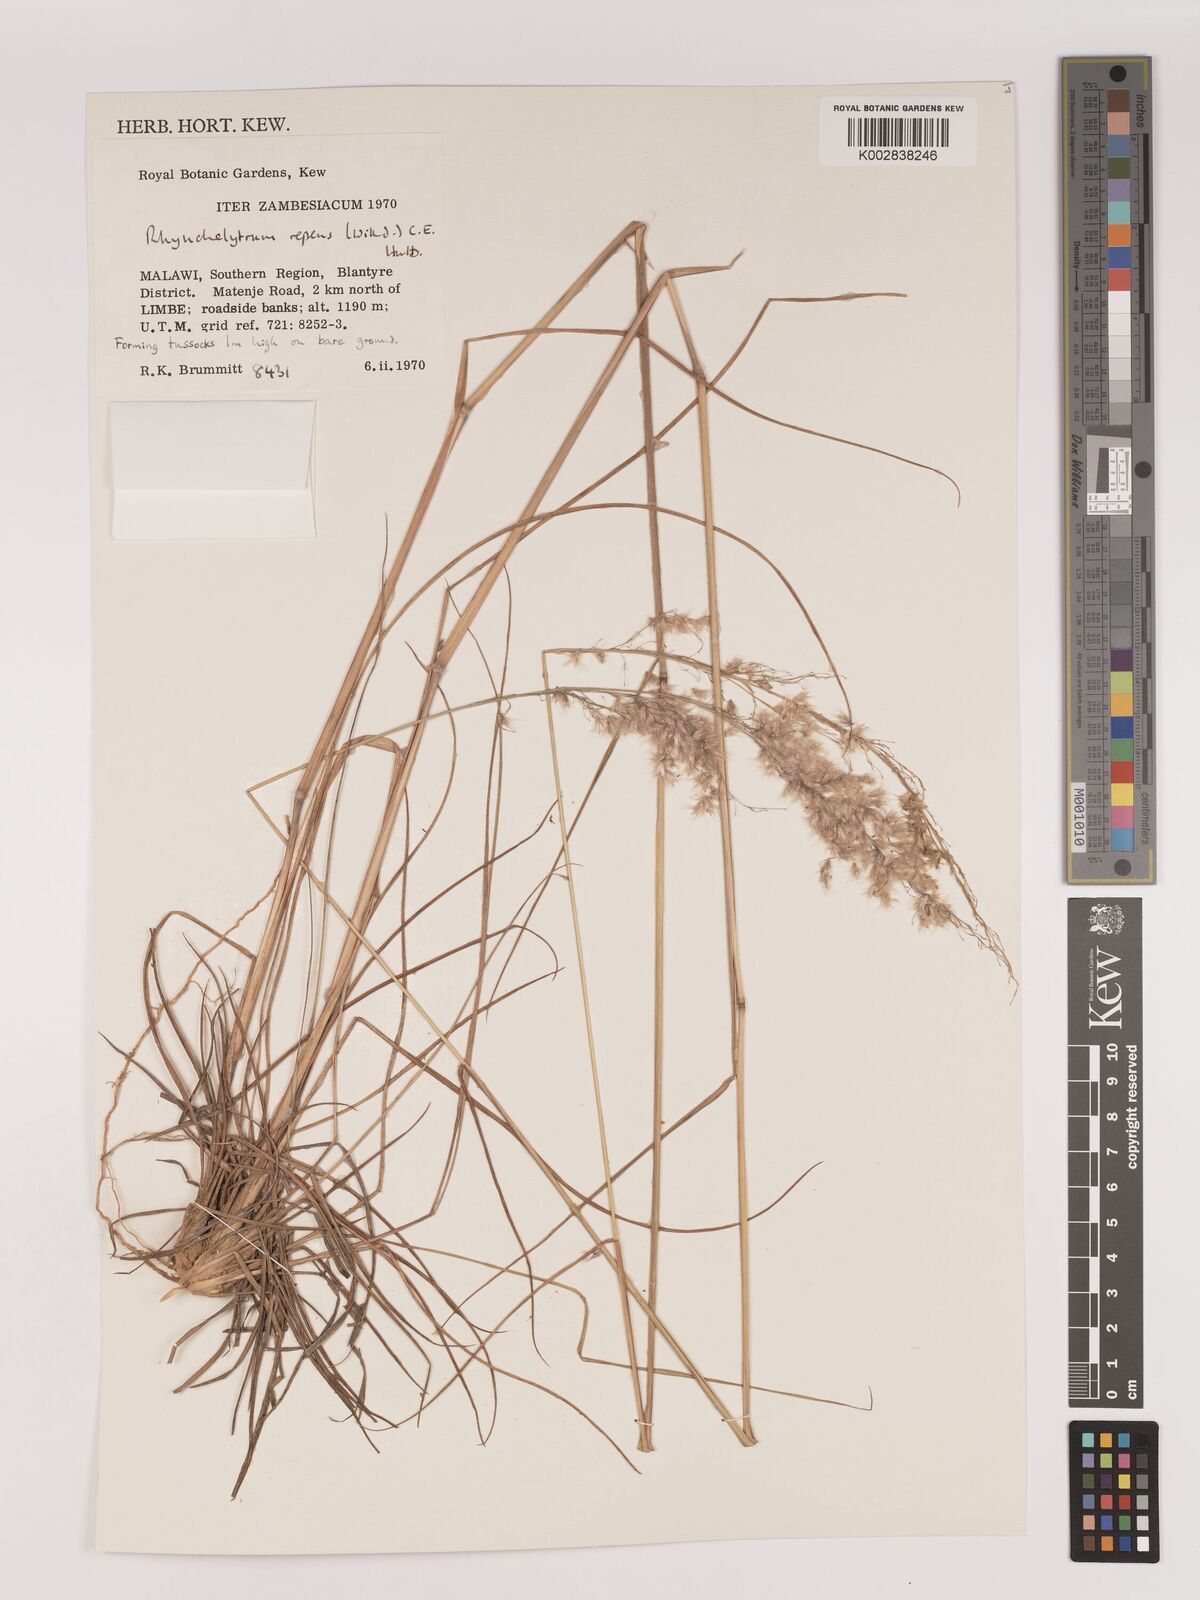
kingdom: Plantae
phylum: Tracheophyta
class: Liliopsida
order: Poales
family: Poaceae
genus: Melinis
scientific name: Melinis repens
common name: Rose natal grass
